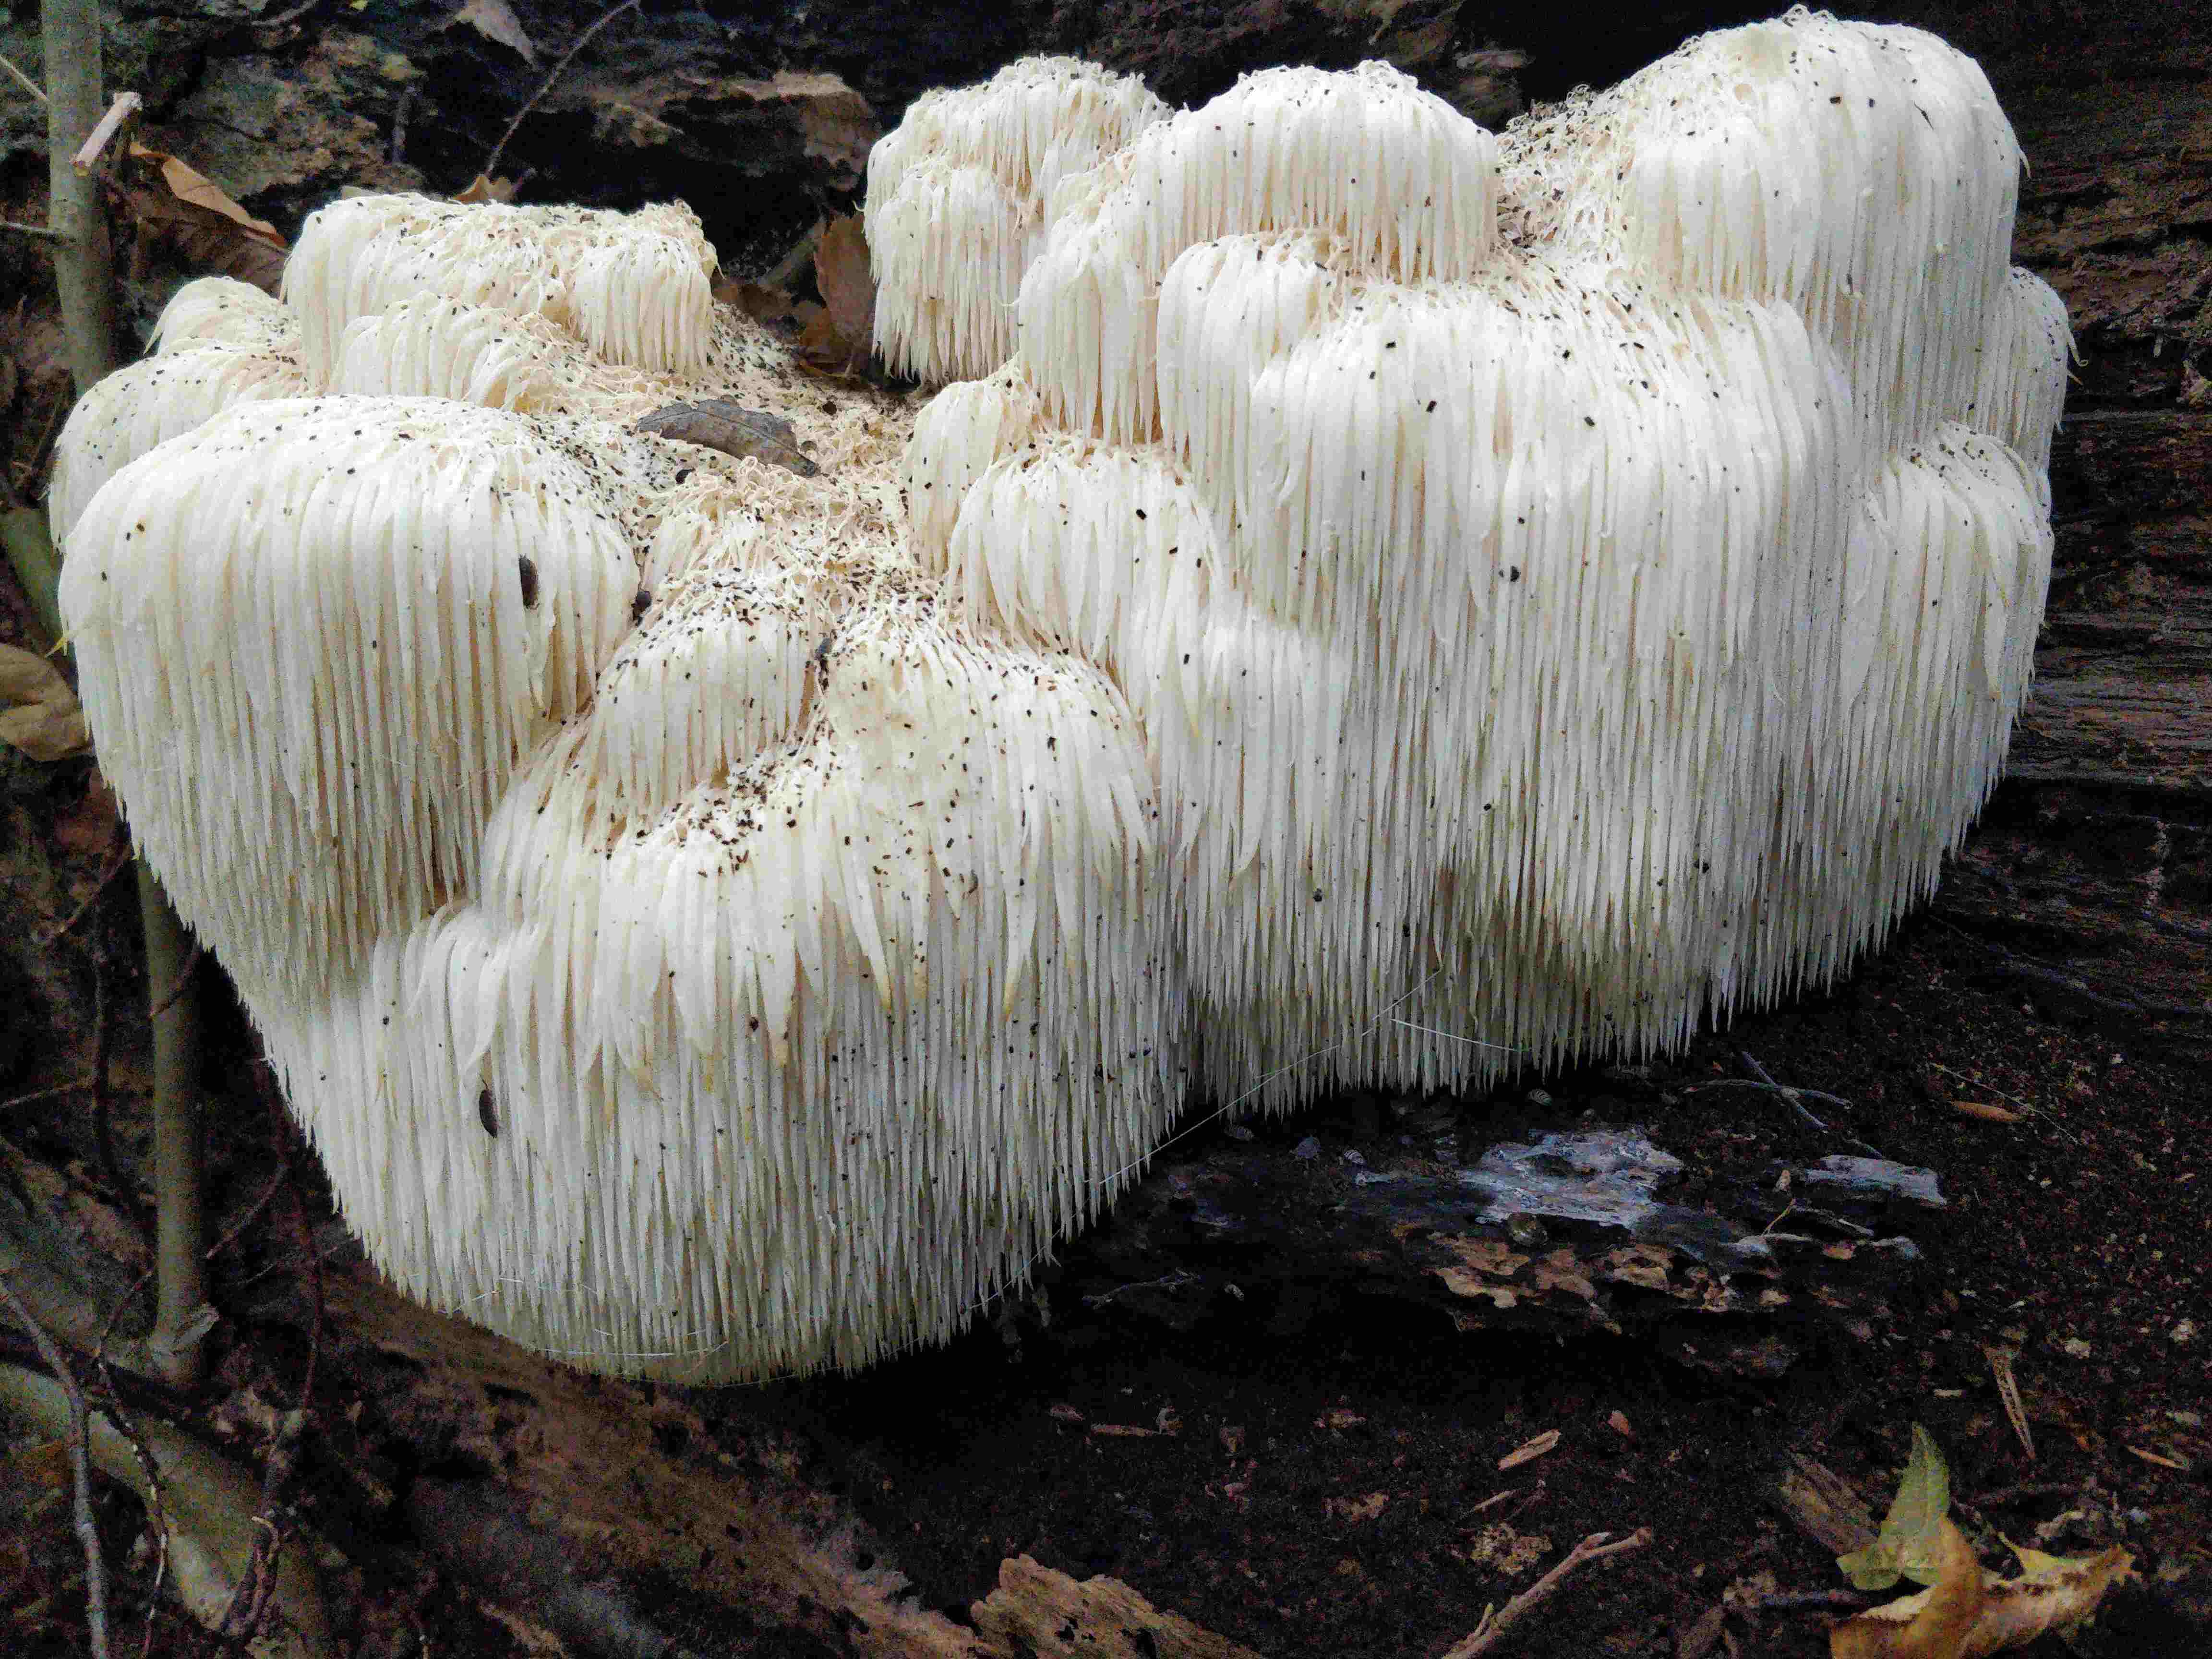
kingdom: Fungi
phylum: Basidiomycota
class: Agaricomycetes
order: Russulales
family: Hericiaceae
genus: Hericium
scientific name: Hericium erinaceus
